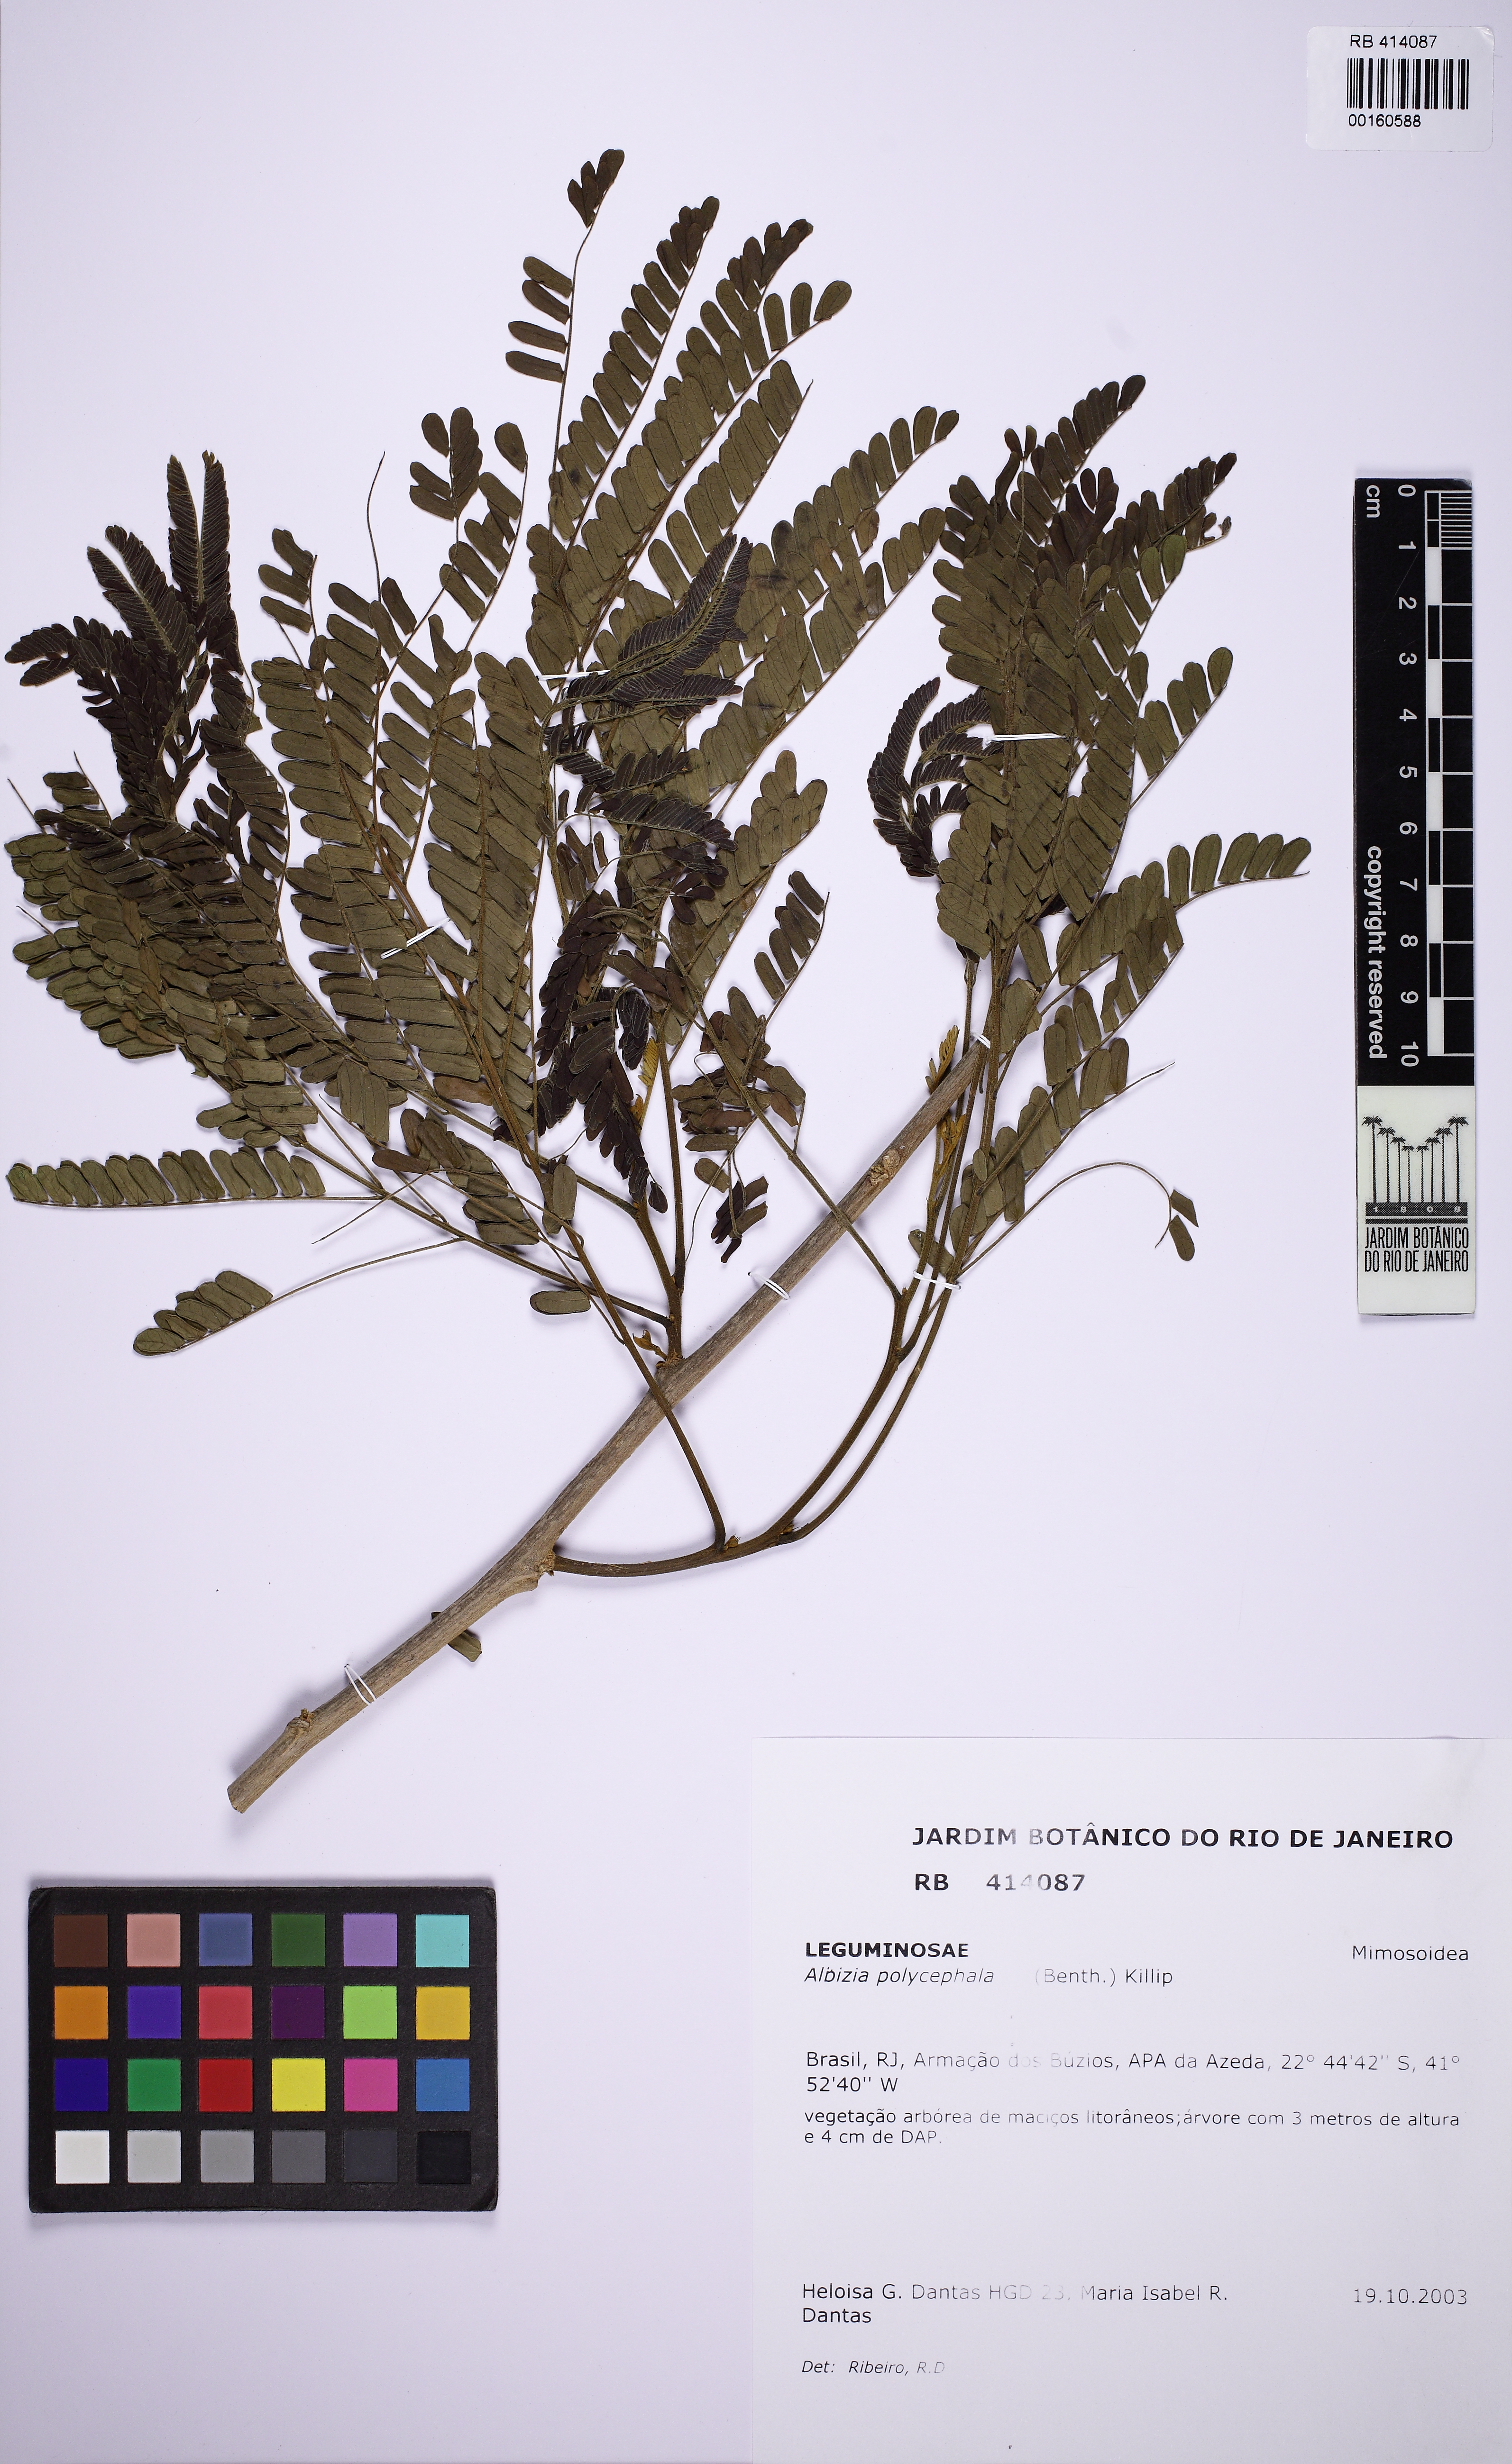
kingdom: Plantae
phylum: Tracheophyta
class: Magnoliopsida
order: Fabales
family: Fabaceae
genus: Albizia
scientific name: Albizia polycephala
